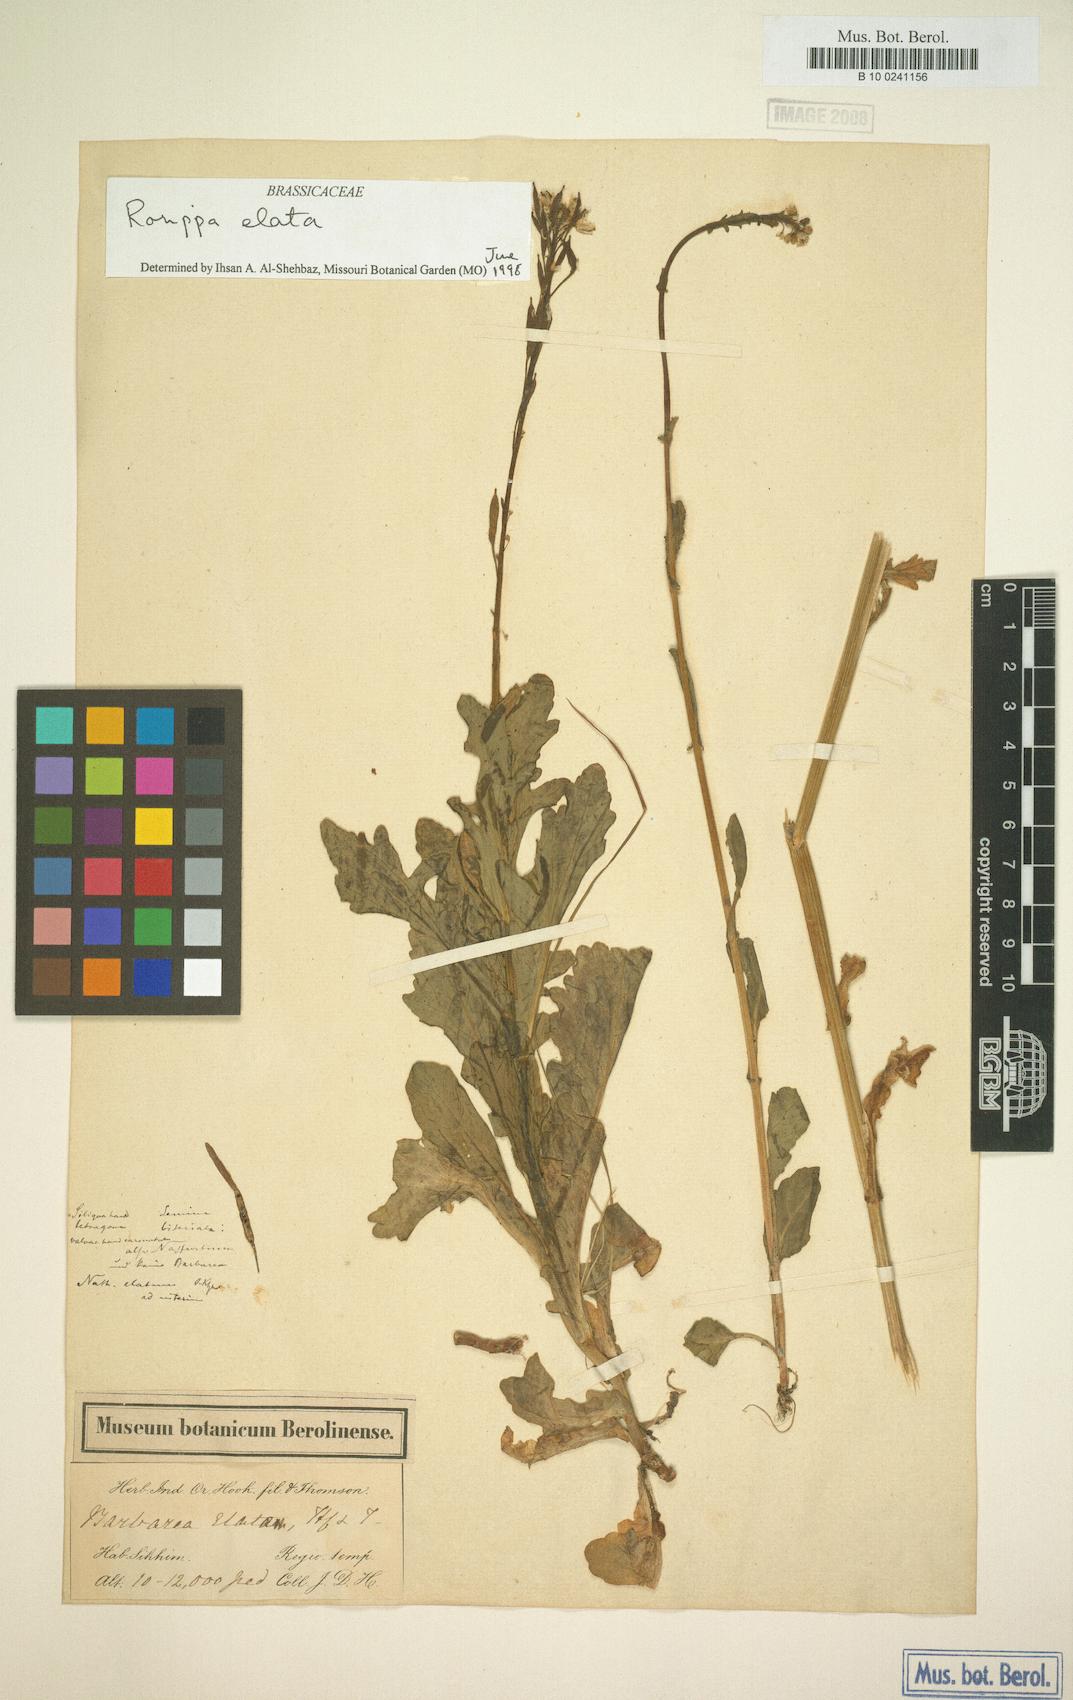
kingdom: Plantae
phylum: Tracheophyta
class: Magnoliopsida
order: Brassicales
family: Brassicaceae
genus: Rorippa
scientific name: Rorippa elata
